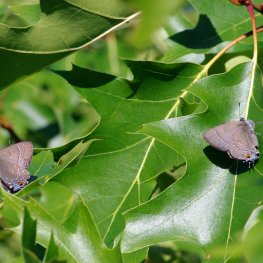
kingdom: Animalia
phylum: Arthropoda
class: Insecta
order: Lepidoptera
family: Lycaenidae
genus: Satyrium
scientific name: Satyrium calanus
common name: Banded Hairstreak
